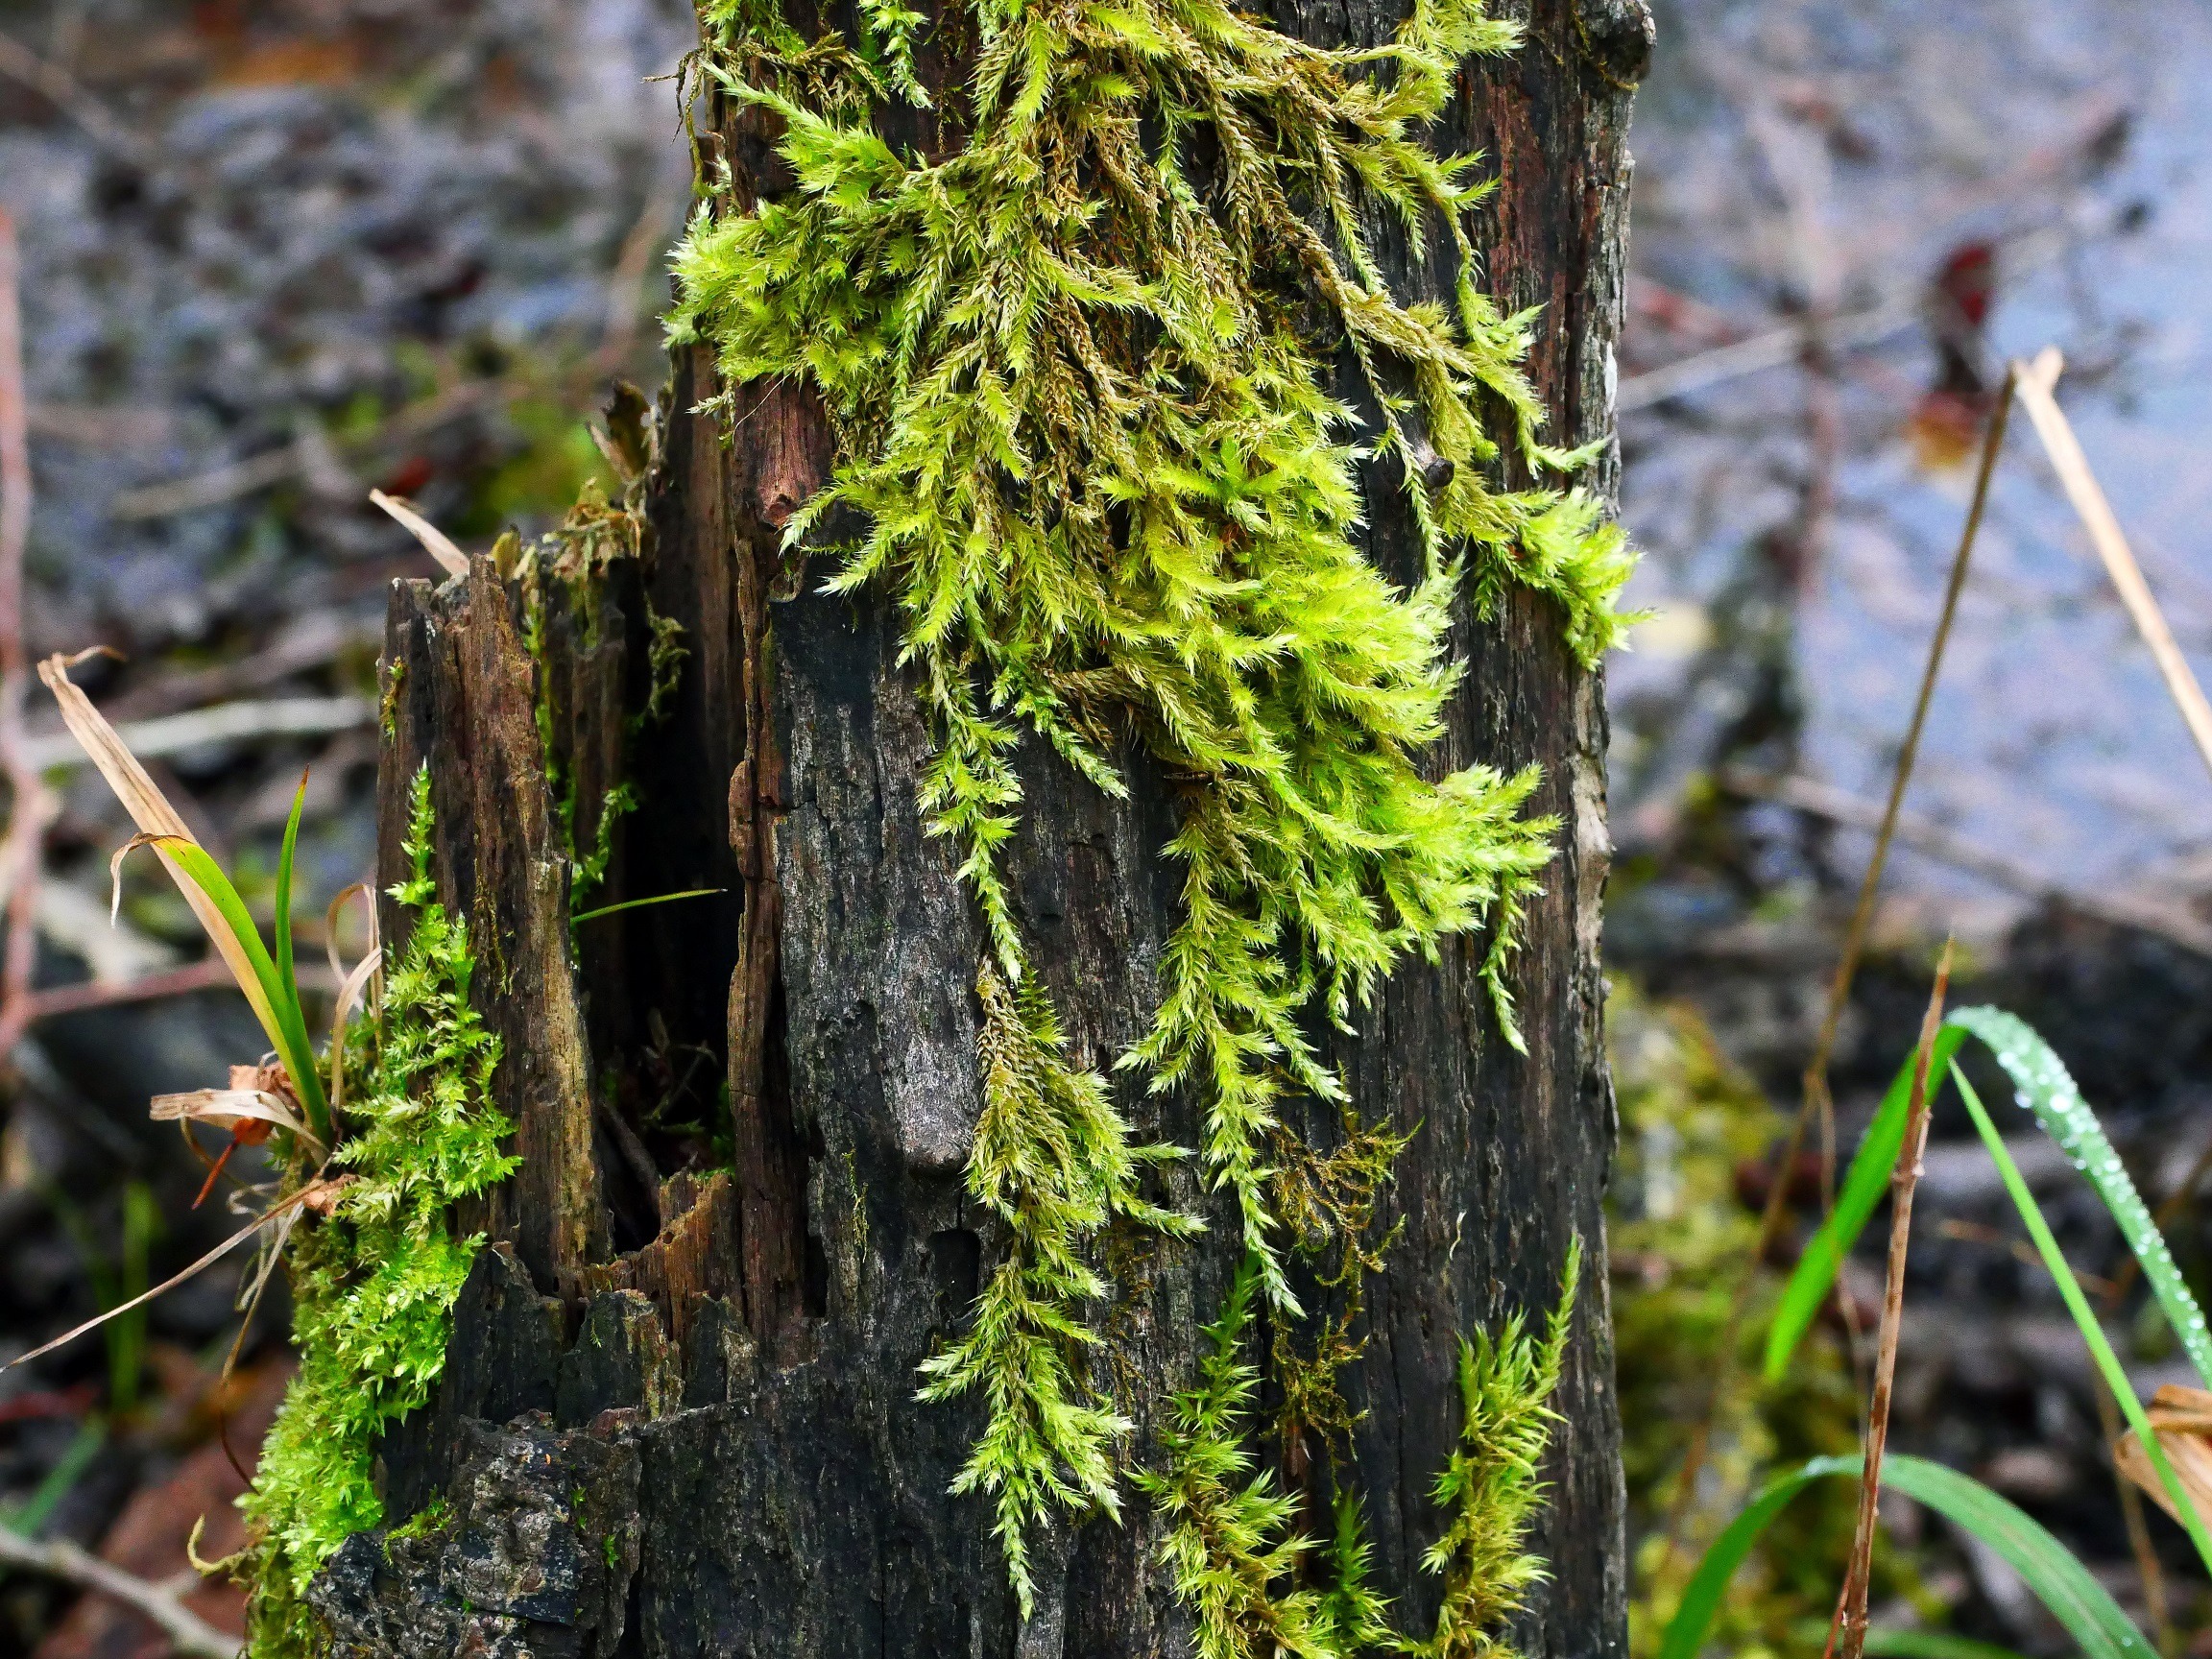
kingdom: Plantae
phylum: Bryophyta
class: Bryopsida
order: Hypnales
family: Brachytheciaceae
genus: Brachythecium
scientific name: Brachythecium salebrosum
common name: Skov-kortkapsel
